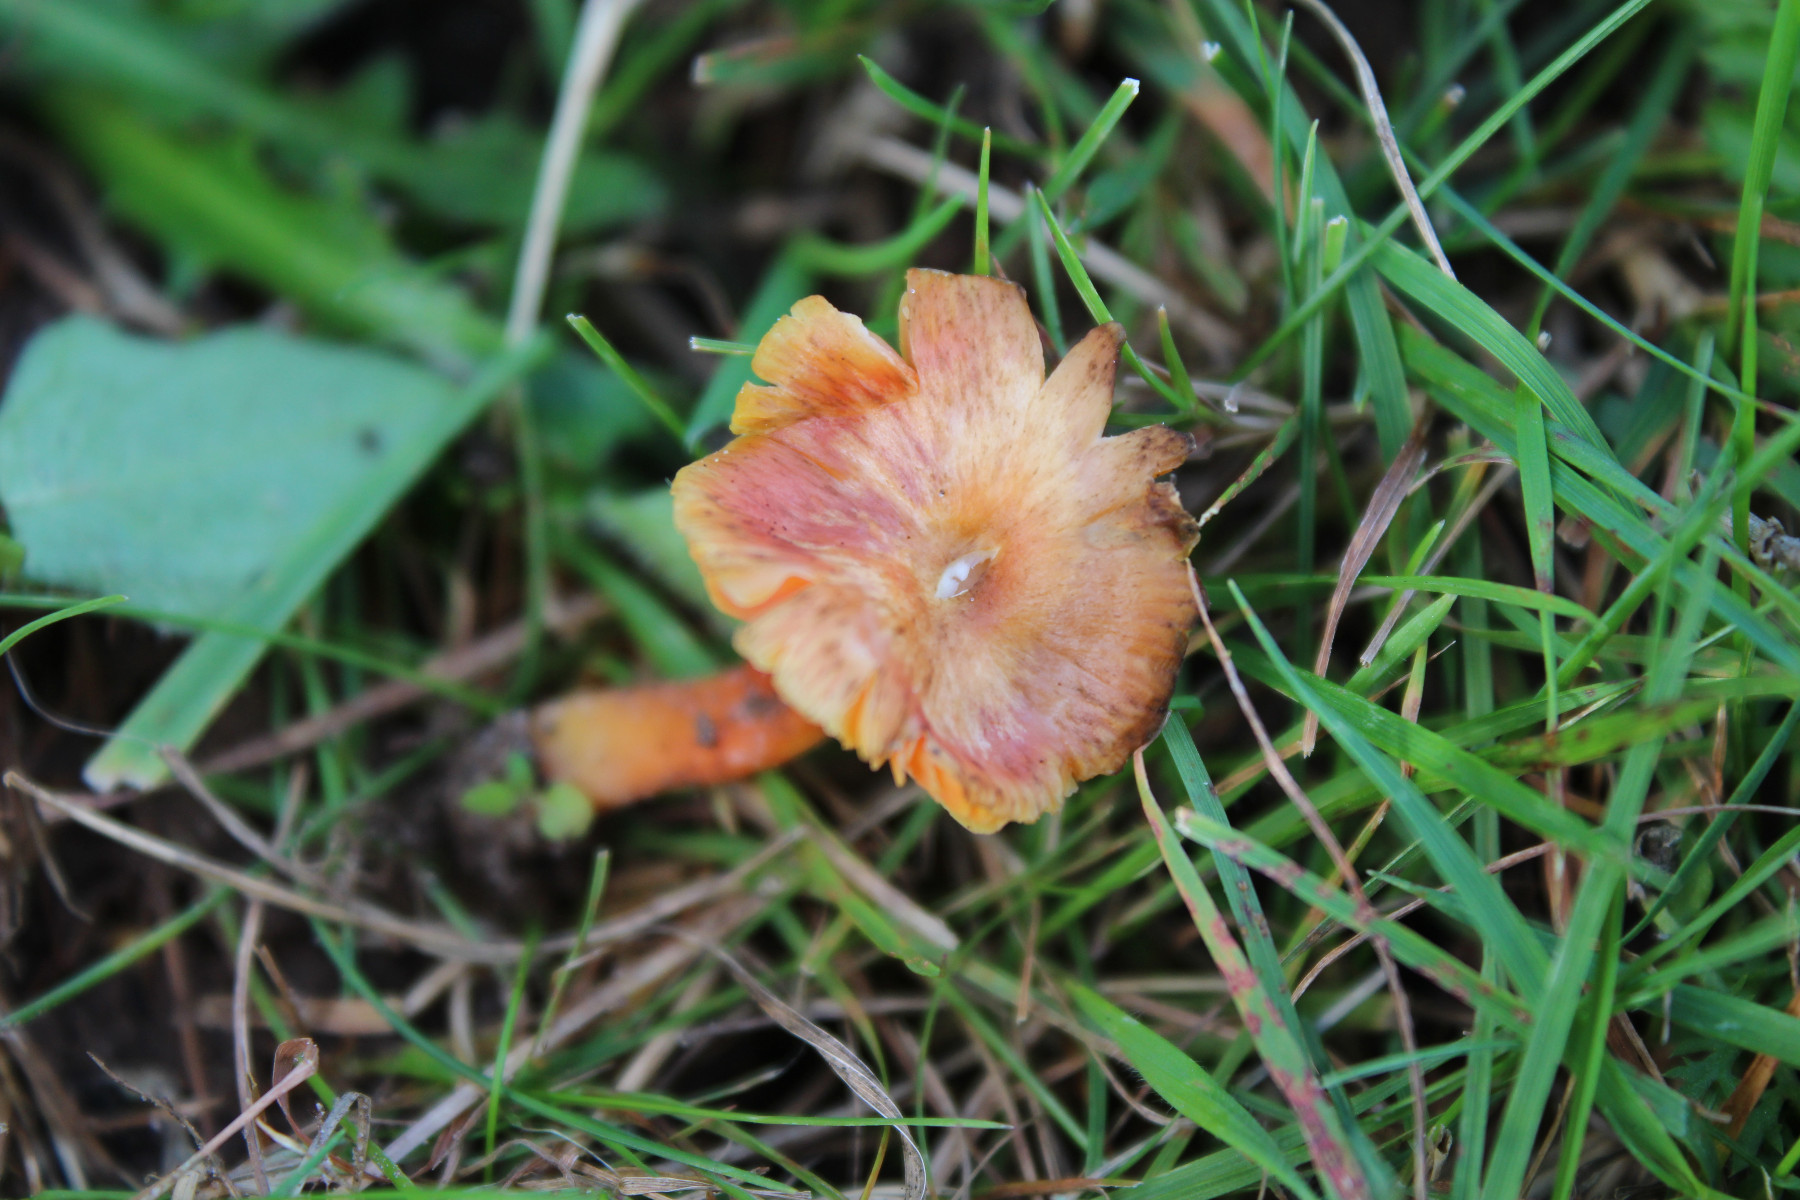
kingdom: Fungi
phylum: Basidiomycota
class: Agaricomycetes
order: Agaricales
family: Hygrophoraceae
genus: Hygrocybe
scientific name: Hygrocybe
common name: vokshat
